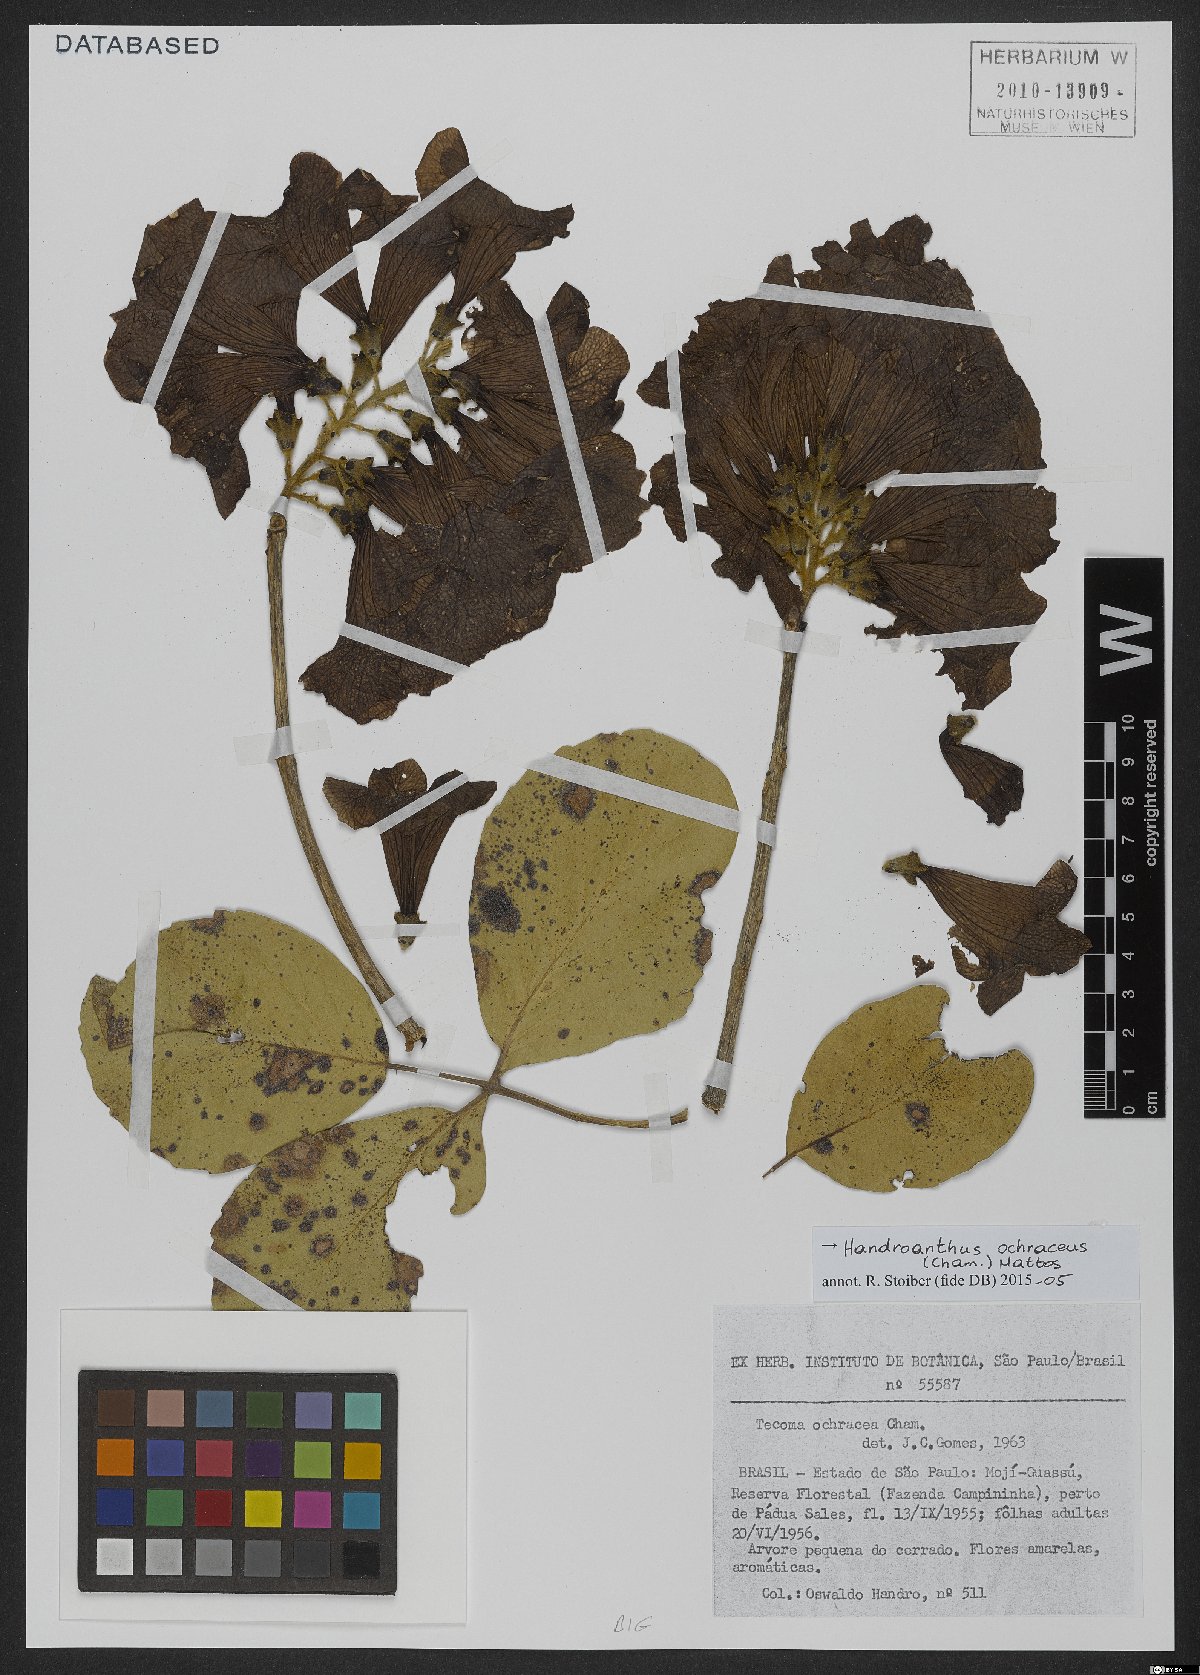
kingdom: Plantae
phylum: Tracheophyta
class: Magnoliopsida
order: Lamiales
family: Bignoniaceae
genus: Handroanthus
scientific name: Handroanthus ochraceus
